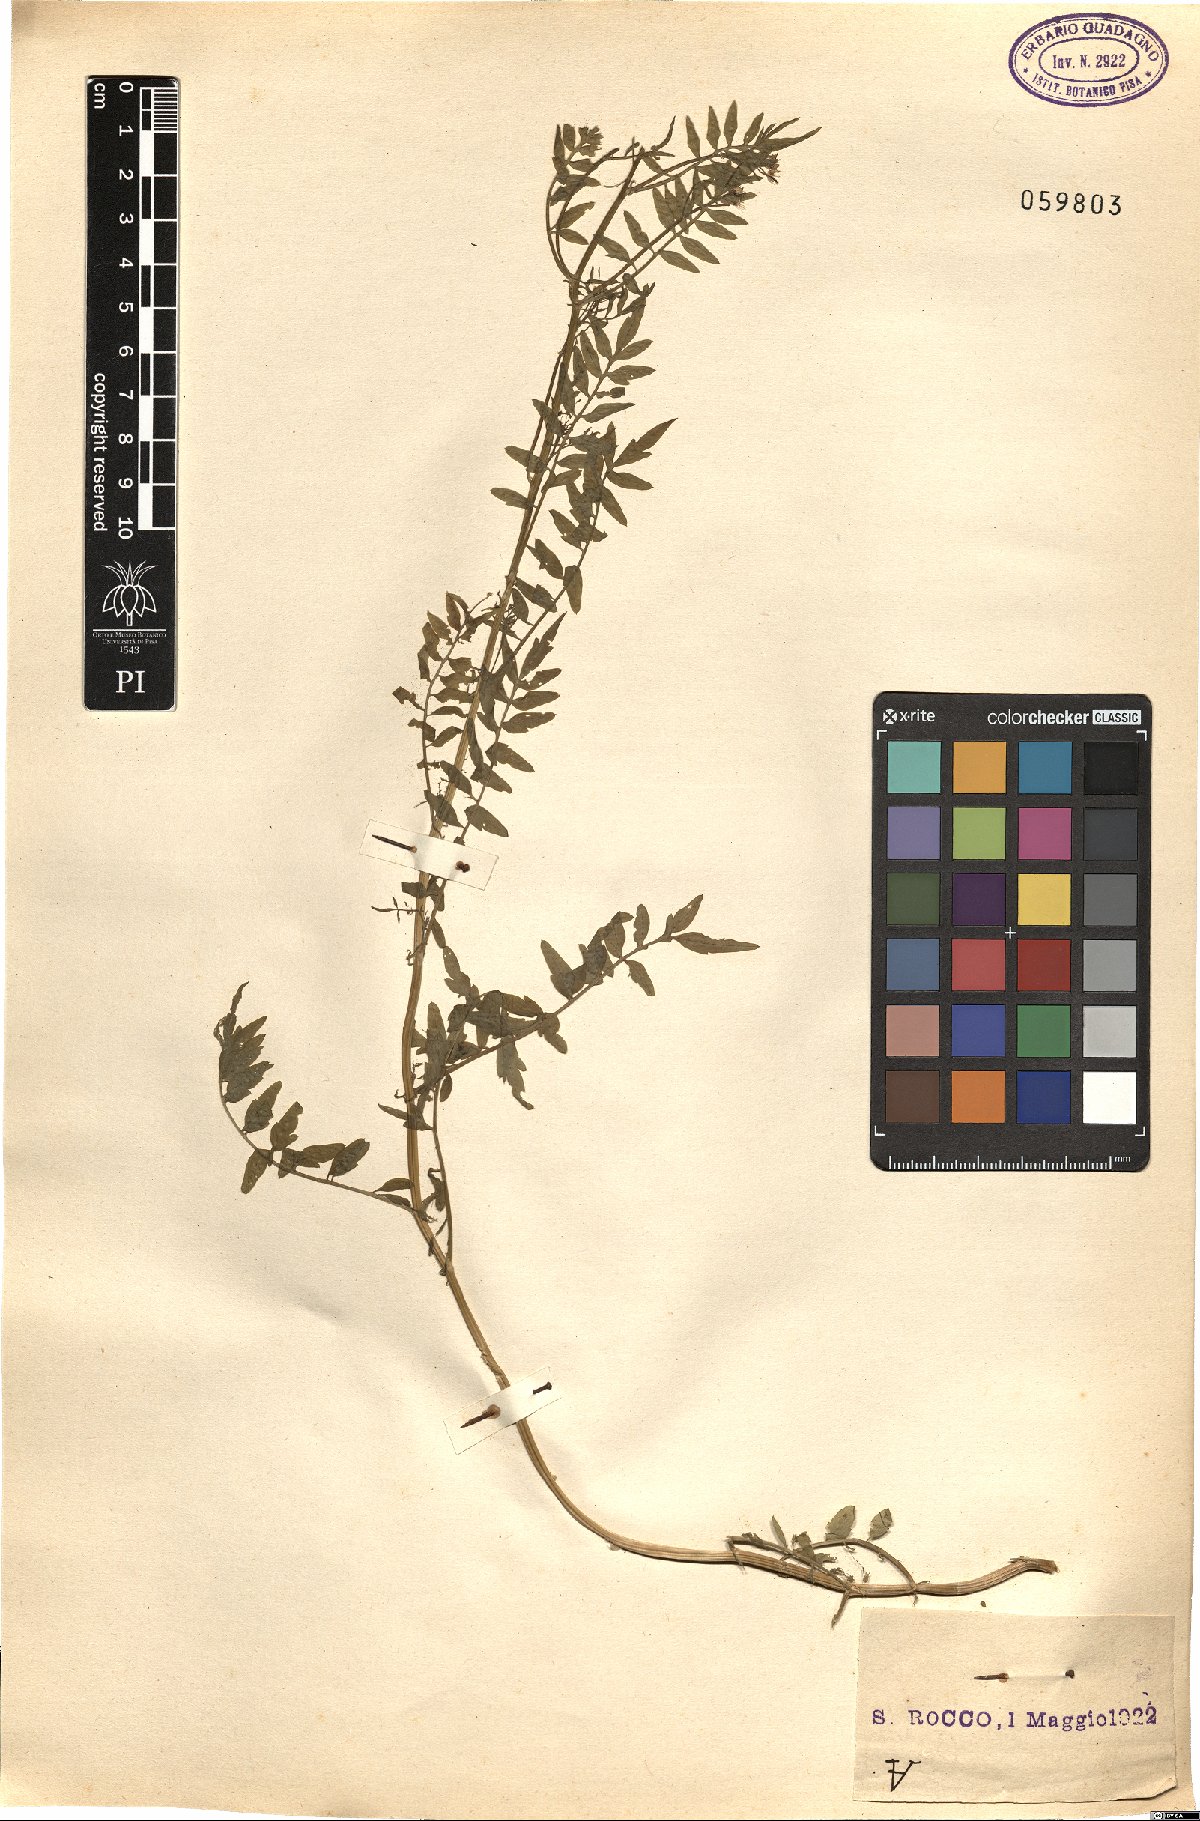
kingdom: Plantae
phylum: Tracheophyta
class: Magnoliopsida
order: Brassicales
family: Brassicaceae
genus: Cardamine
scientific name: Cardamine impatiens
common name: Narrow-leaved bitter-cress
